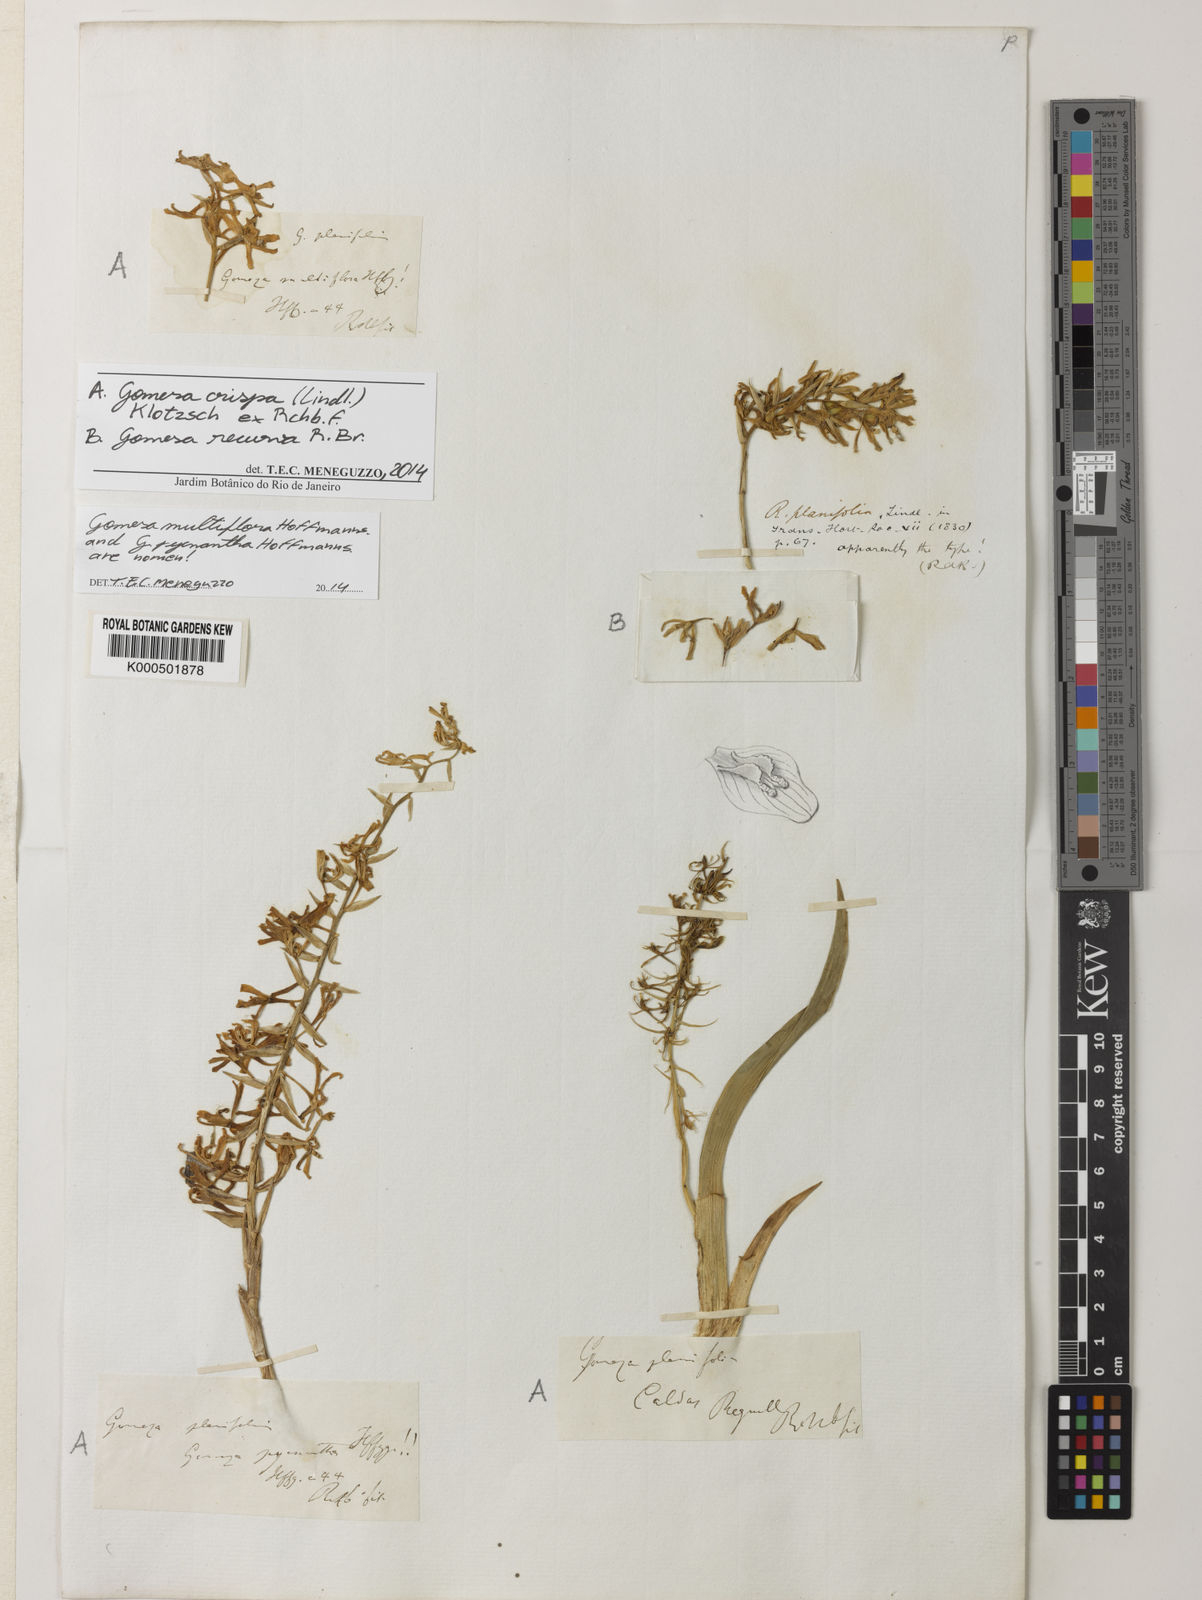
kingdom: Plantae
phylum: Tracheophyta
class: Liliopsida
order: Asparagales
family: Orchidaceae
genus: Gomesa
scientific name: Gomesa crispa
